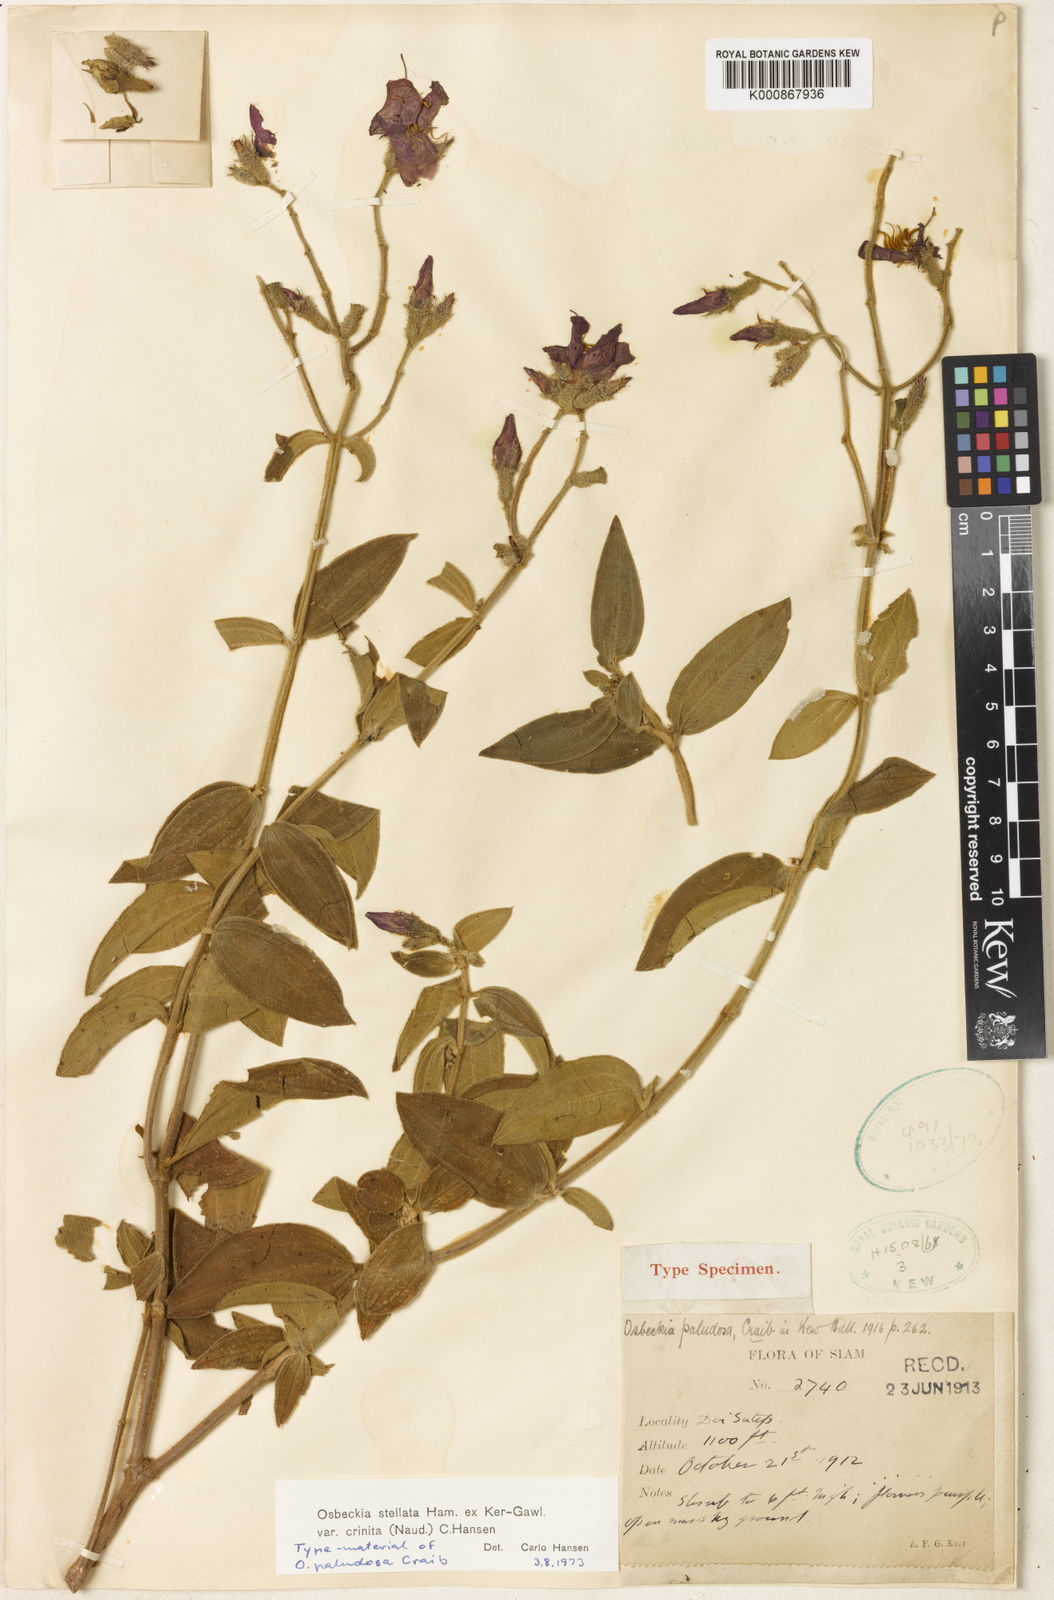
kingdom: Plantae
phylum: Tracheophyta
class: Magnoliopsida
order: Myrtales
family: Melastomataceae
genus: Osbeckia
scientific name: Osbeckia crinita
